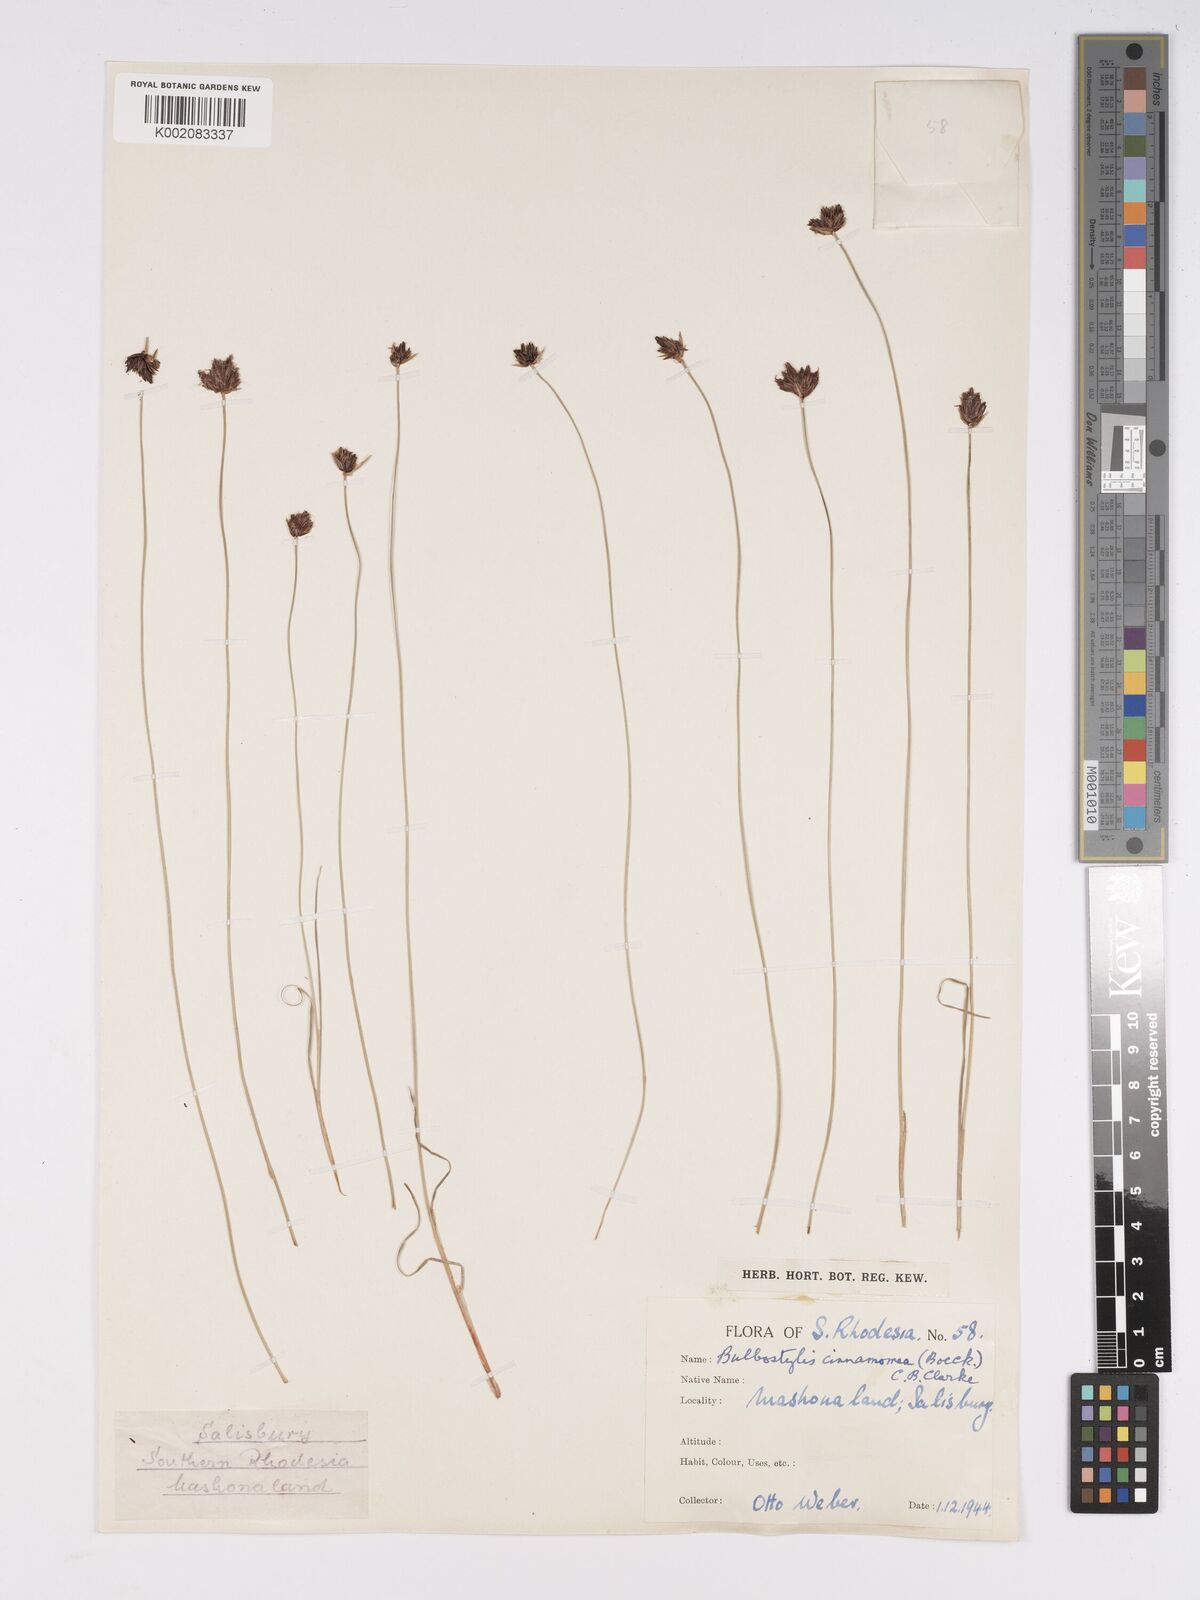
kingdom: Plantae
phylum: Tracheophyta
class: Liliopsida
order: Poales
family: Cyperaceae
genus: Bulbostylis
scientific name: Bulbostylis schoenoides
